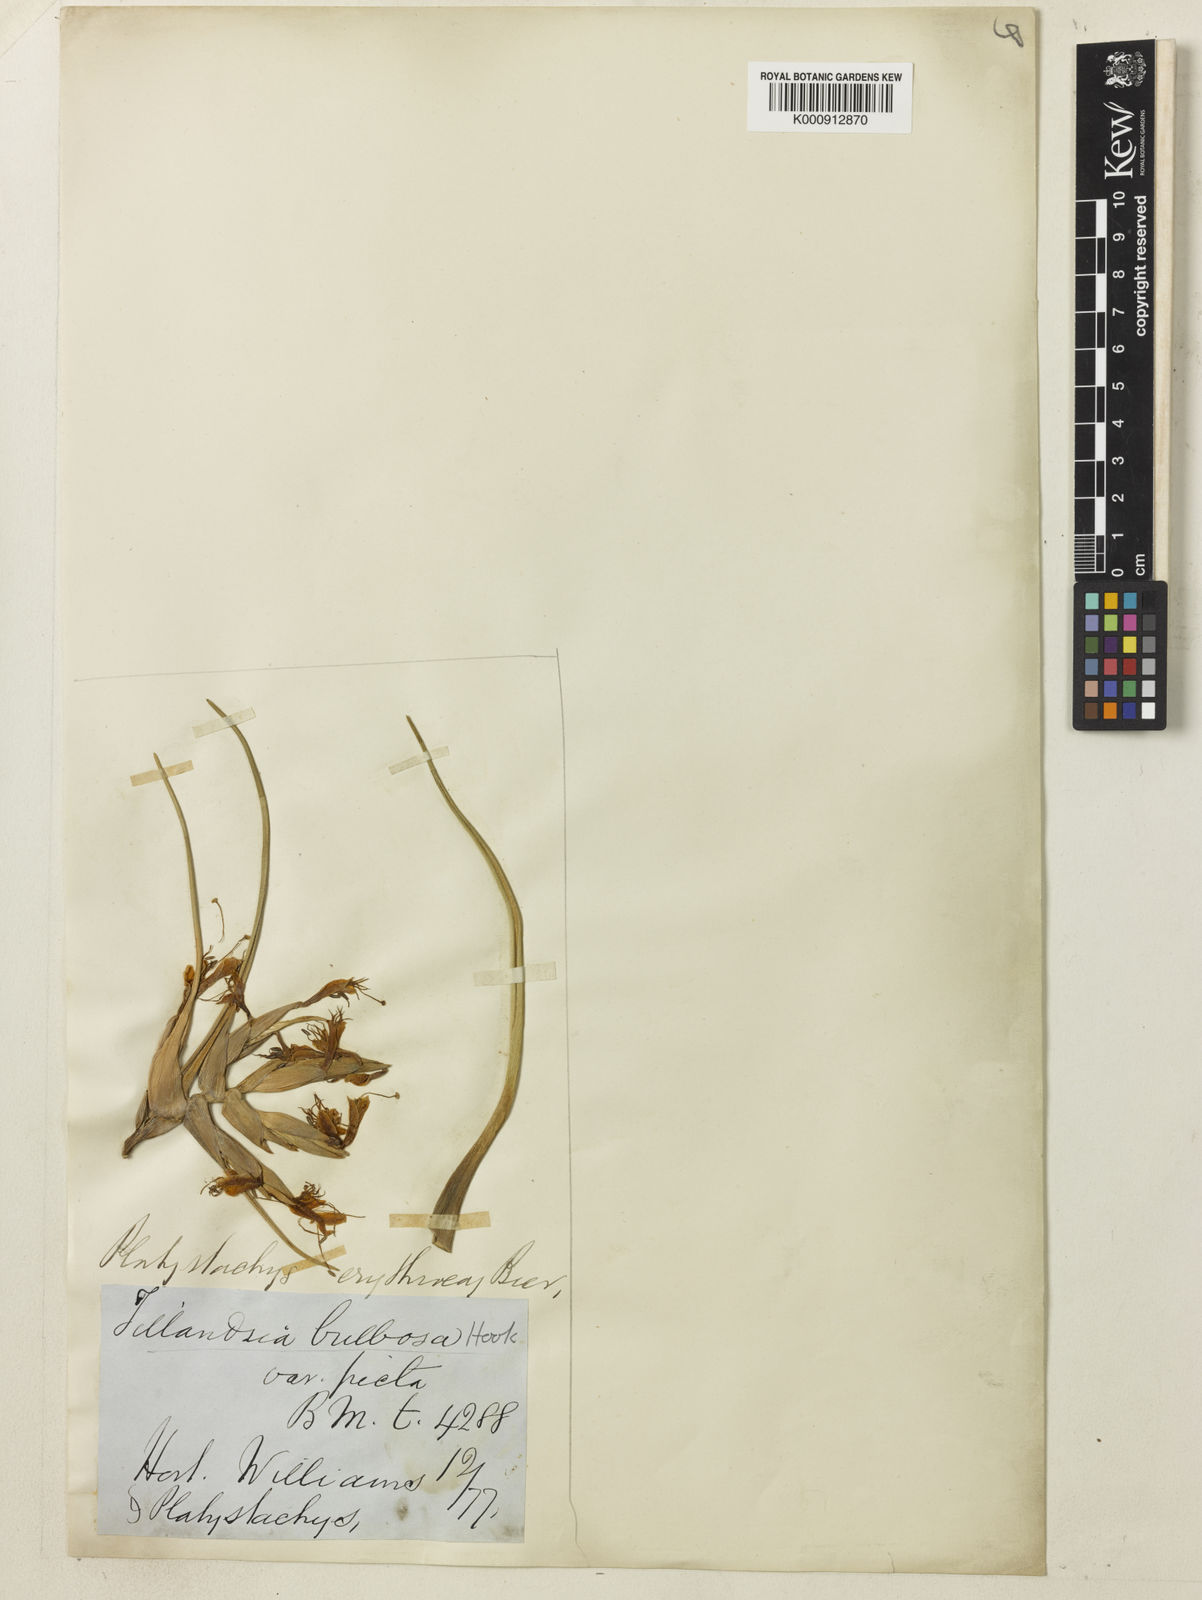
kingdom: Plantae
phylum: Tracheophyta
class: Liliopsida
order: Poales
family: Bromeliaceae
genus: Tillandsia
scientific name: Tillandsia bulbosa
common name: Bulbous airplant
